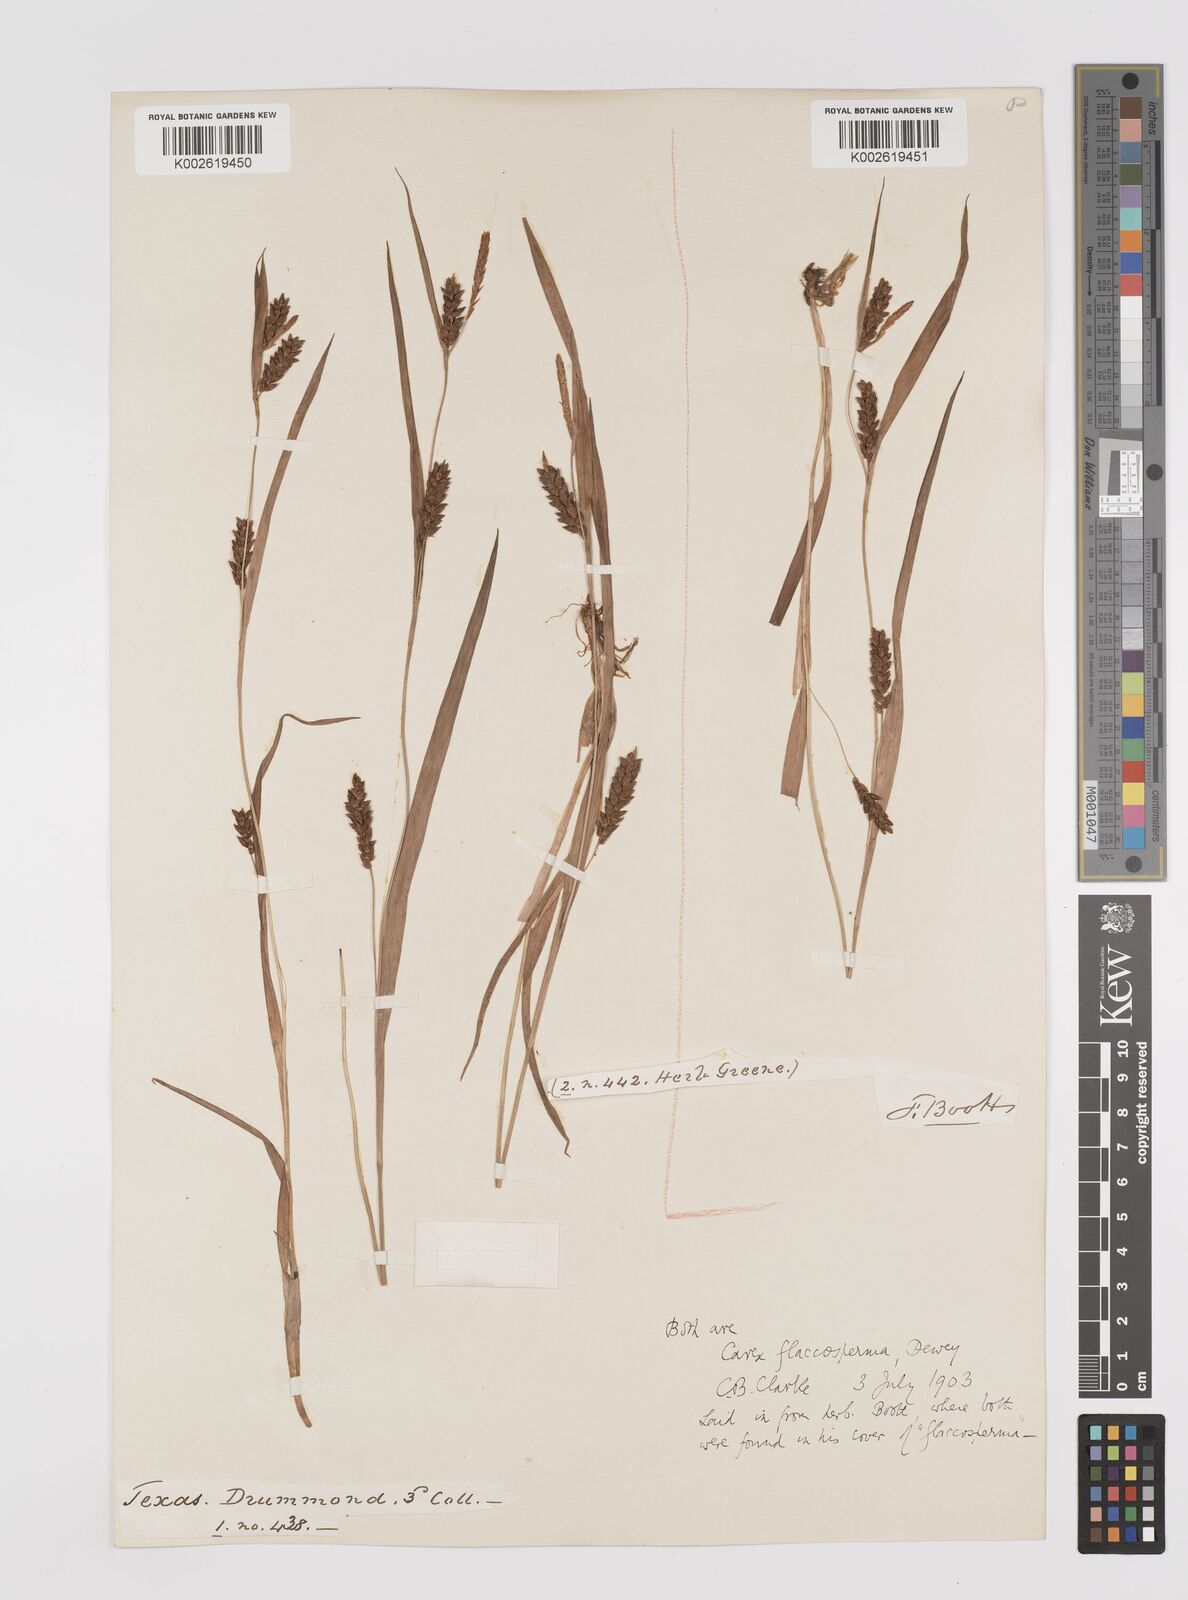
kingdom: Plantae
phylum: Tracheophyta
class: Liliopsida
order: Poales
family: Cyperaceae
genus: Carex
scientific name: Carex flaccosperma
